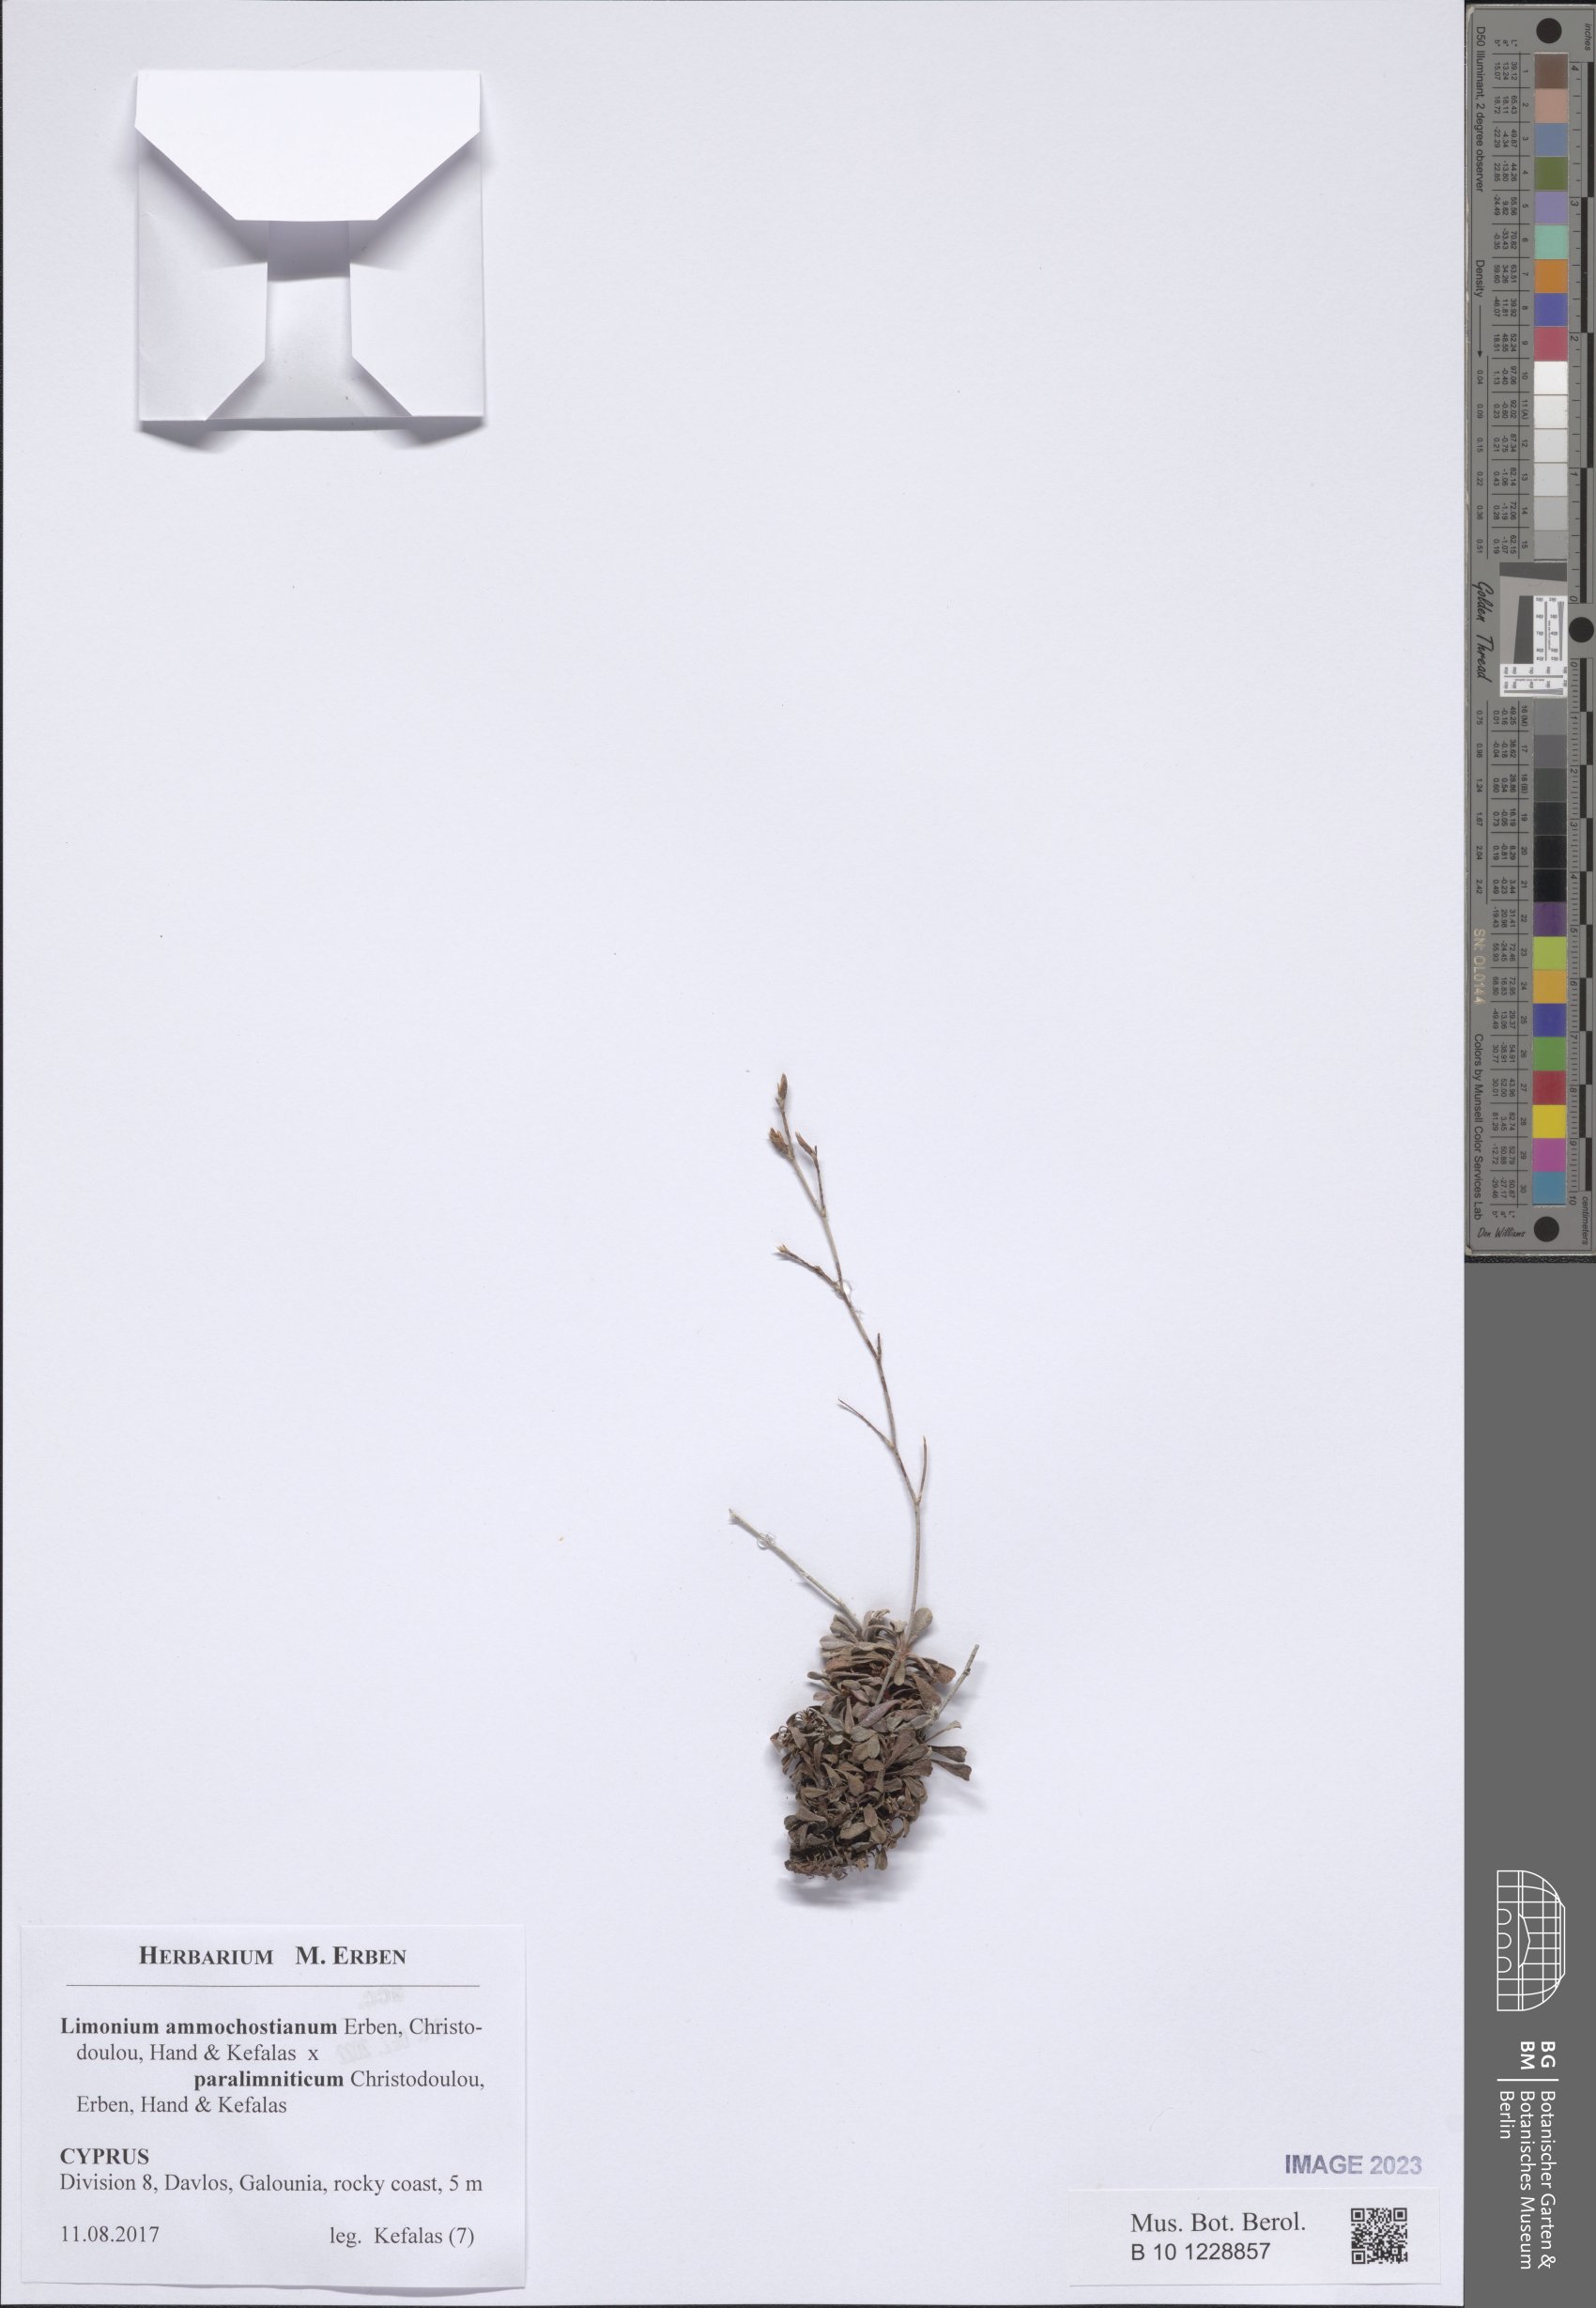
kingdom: Plantae
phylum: Tracheophyta
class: Magnoliopsida
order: Caryophyllales
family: Plumbaginaceae
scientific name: Plumbaginaceae
